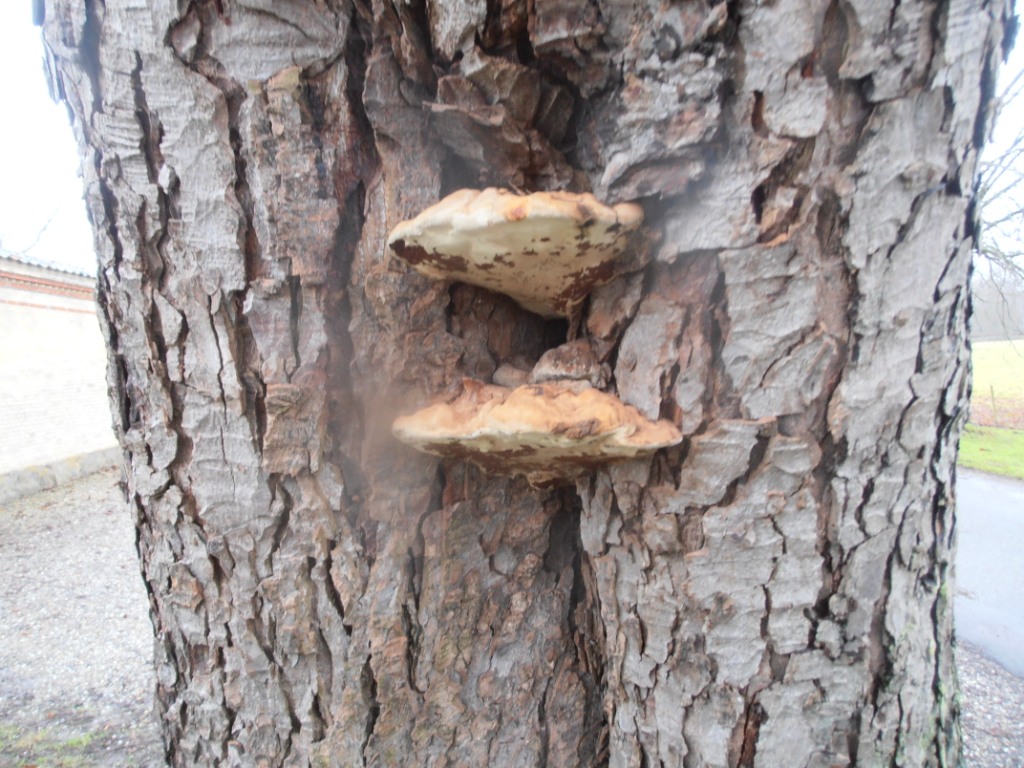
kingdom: Fungi
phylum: Basidiomycota
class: Agaricomycetes
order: Polyporales
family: Polyporaceae
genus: Ganoderma
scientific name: Ganoderma adspersum
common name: grov lakporesvamp
